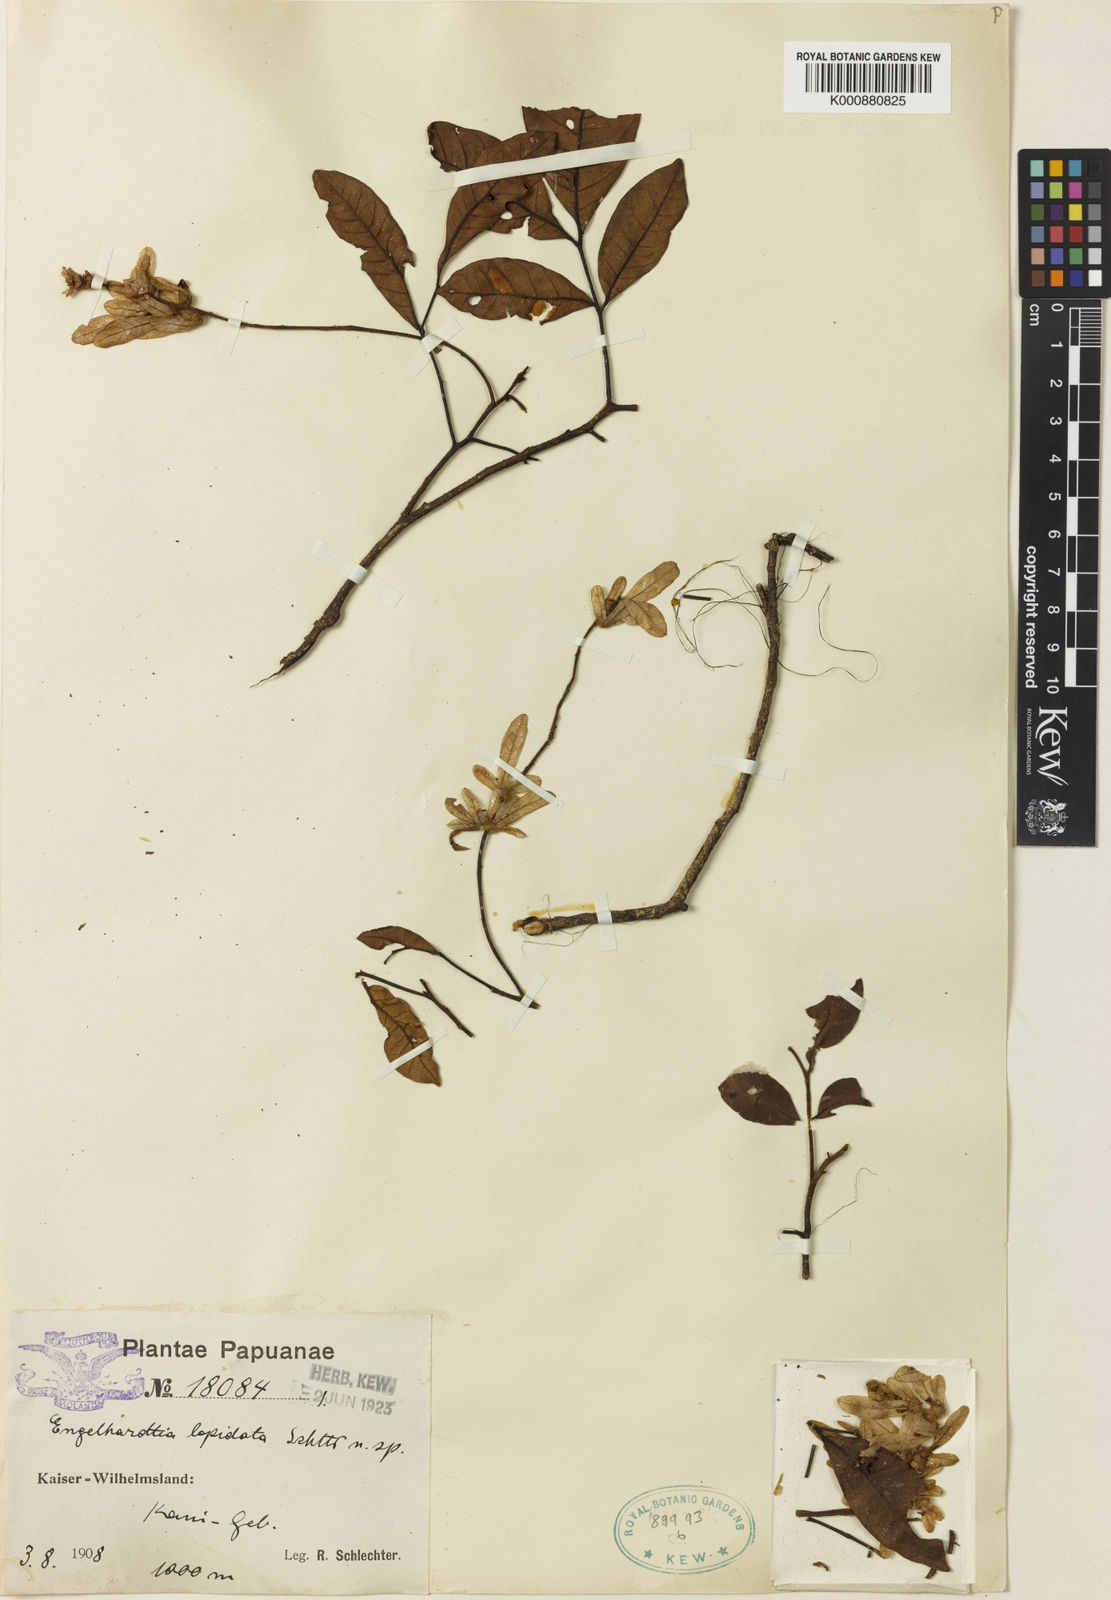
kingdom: Plantae
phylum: Tracheophyta
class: Magnoliopsida
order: Fagales
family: Juglandaceae
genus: Engelhardia
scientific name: Engelhardia rigida
